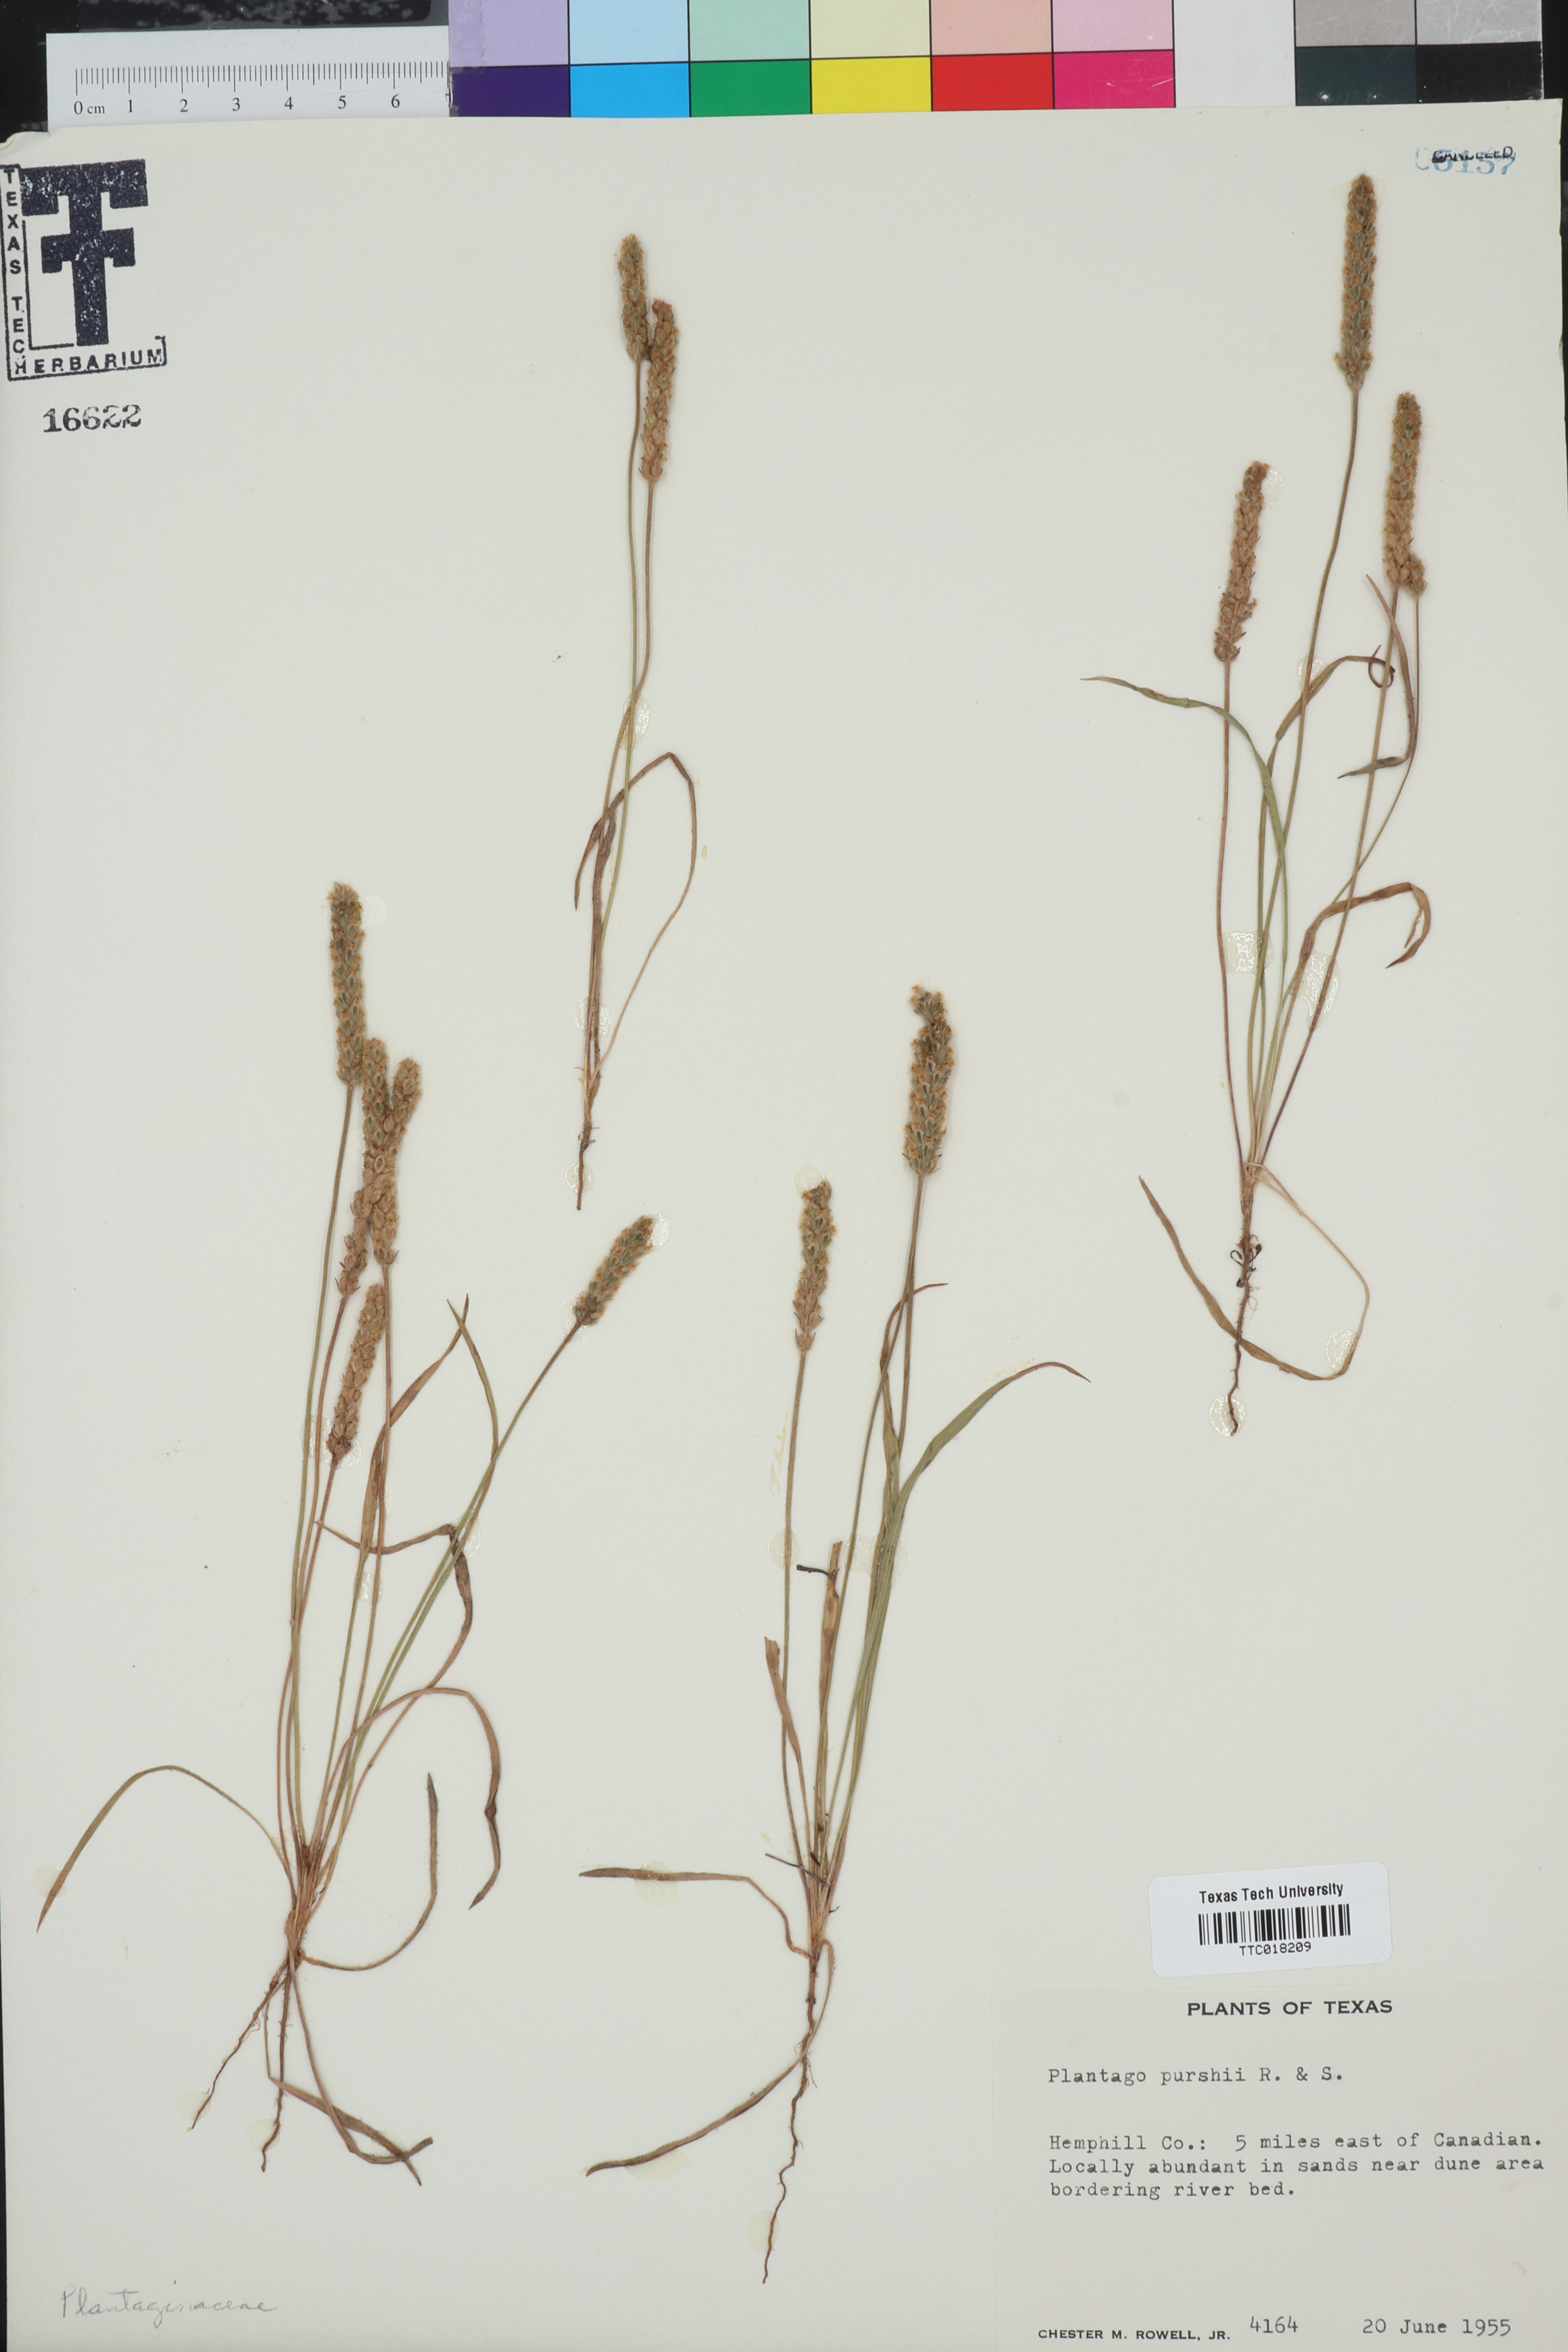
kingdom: Plantae
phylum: Tracheophyta
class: Magnoliopsida
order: Lamiales
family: Plantaginaceae
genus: Plantago
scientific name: Plantago patagonica
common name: Patagonia indian-wheat
